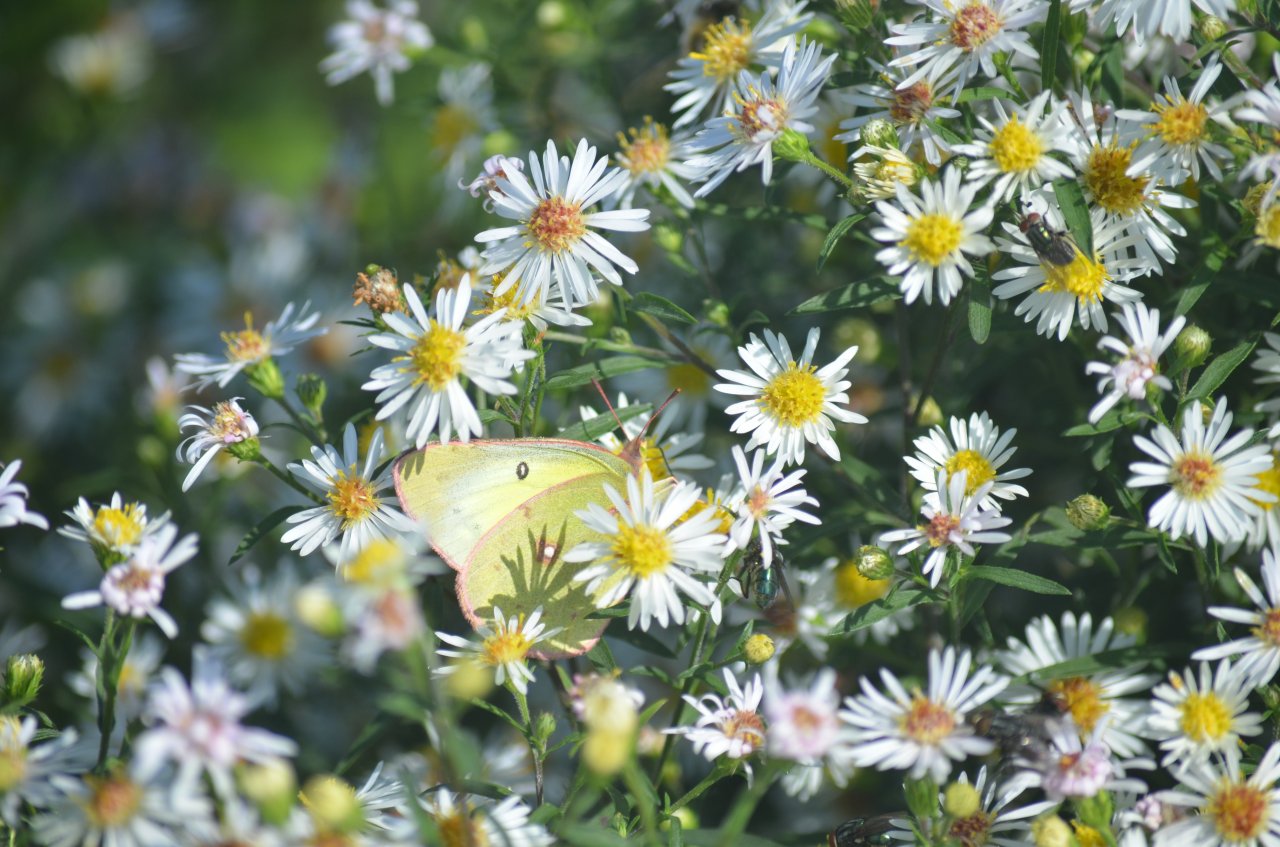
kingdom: Animalia
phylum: Arthropoda
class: Insecta
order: Lepidoptera
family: Pieridae
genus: Colias
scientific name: Colias philodice
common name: Clouded Sulphur
